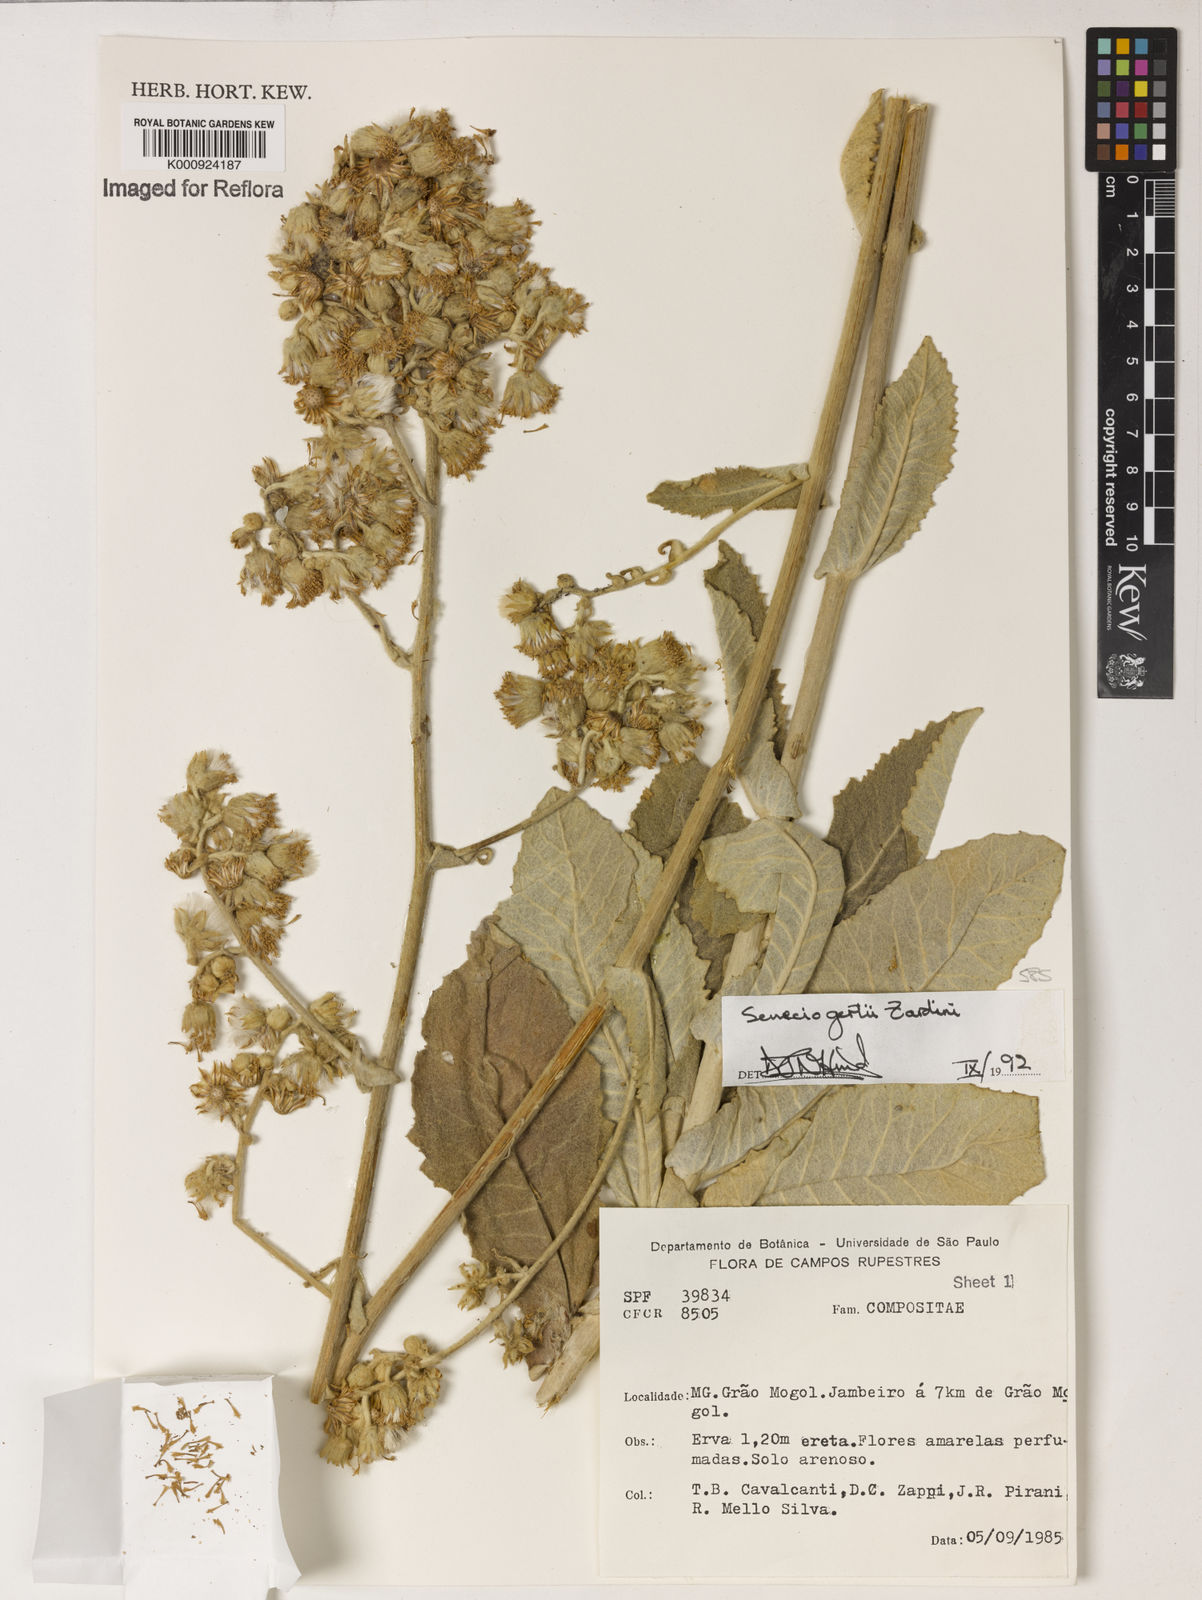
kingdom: Plantae
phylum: Tracheophyta
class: Magnoliopsida
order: Asterales
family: Asteraceae
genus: Senecio
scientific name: Senecio gertii
